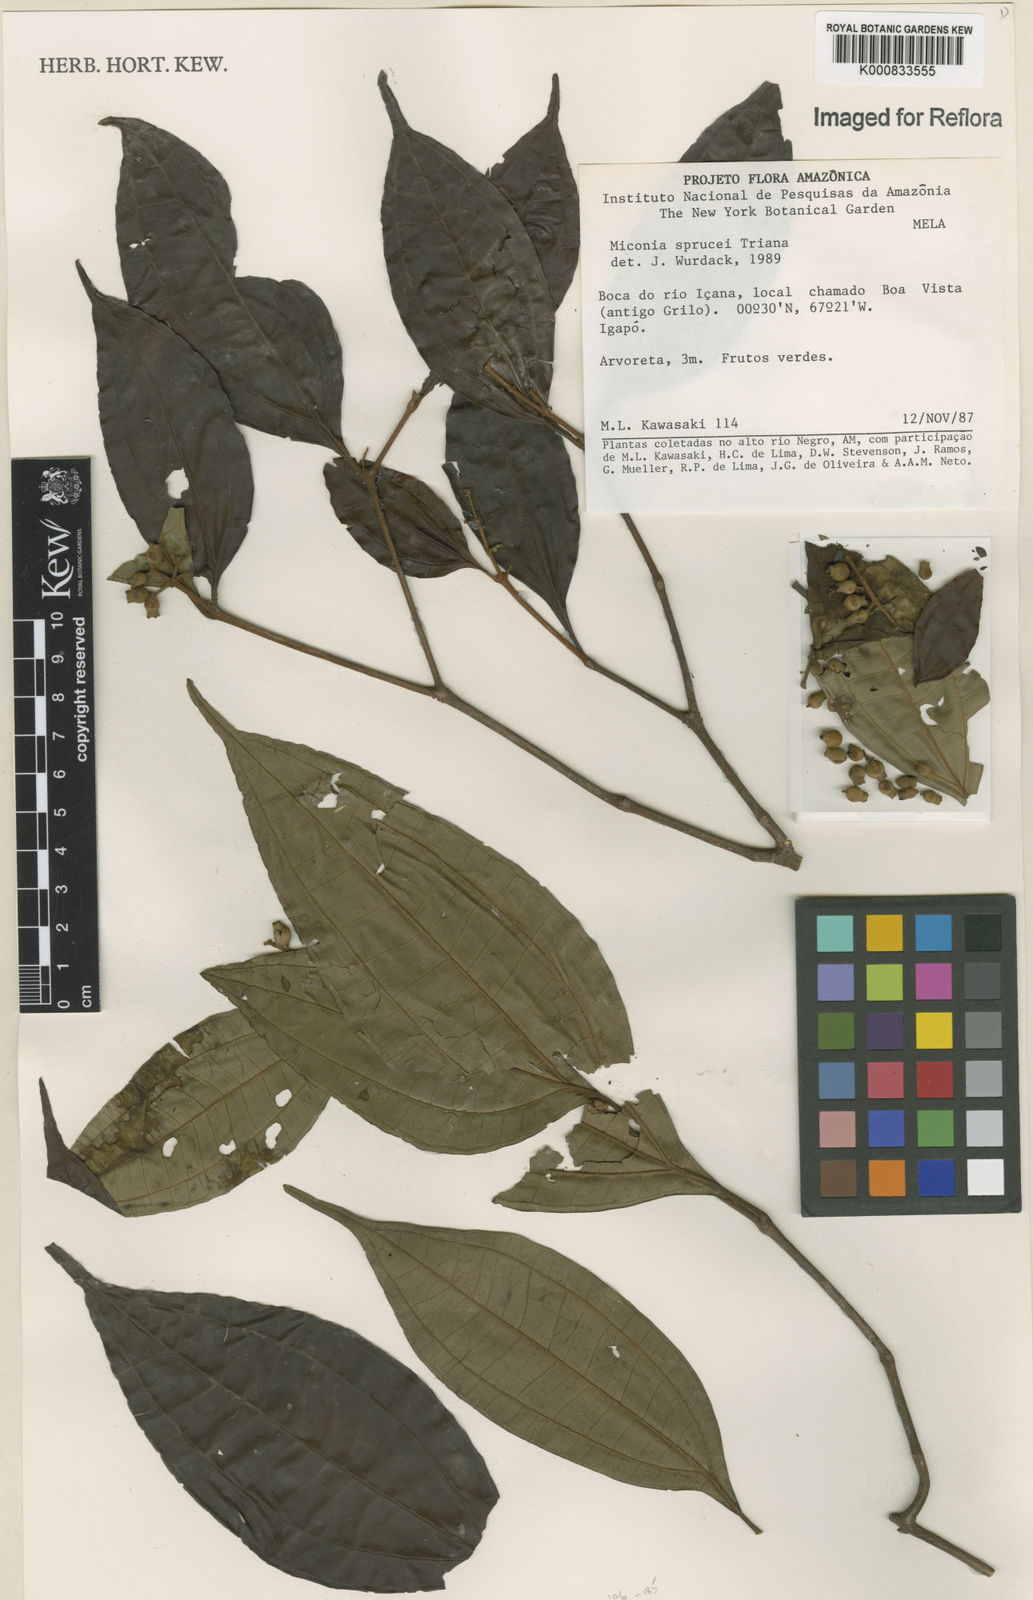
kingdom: Plantae
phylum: Tracheophyta
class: Magnoliopsida
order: Myrtales
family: Melastomataceae
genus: Miconia
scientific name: Miconia sprucei
